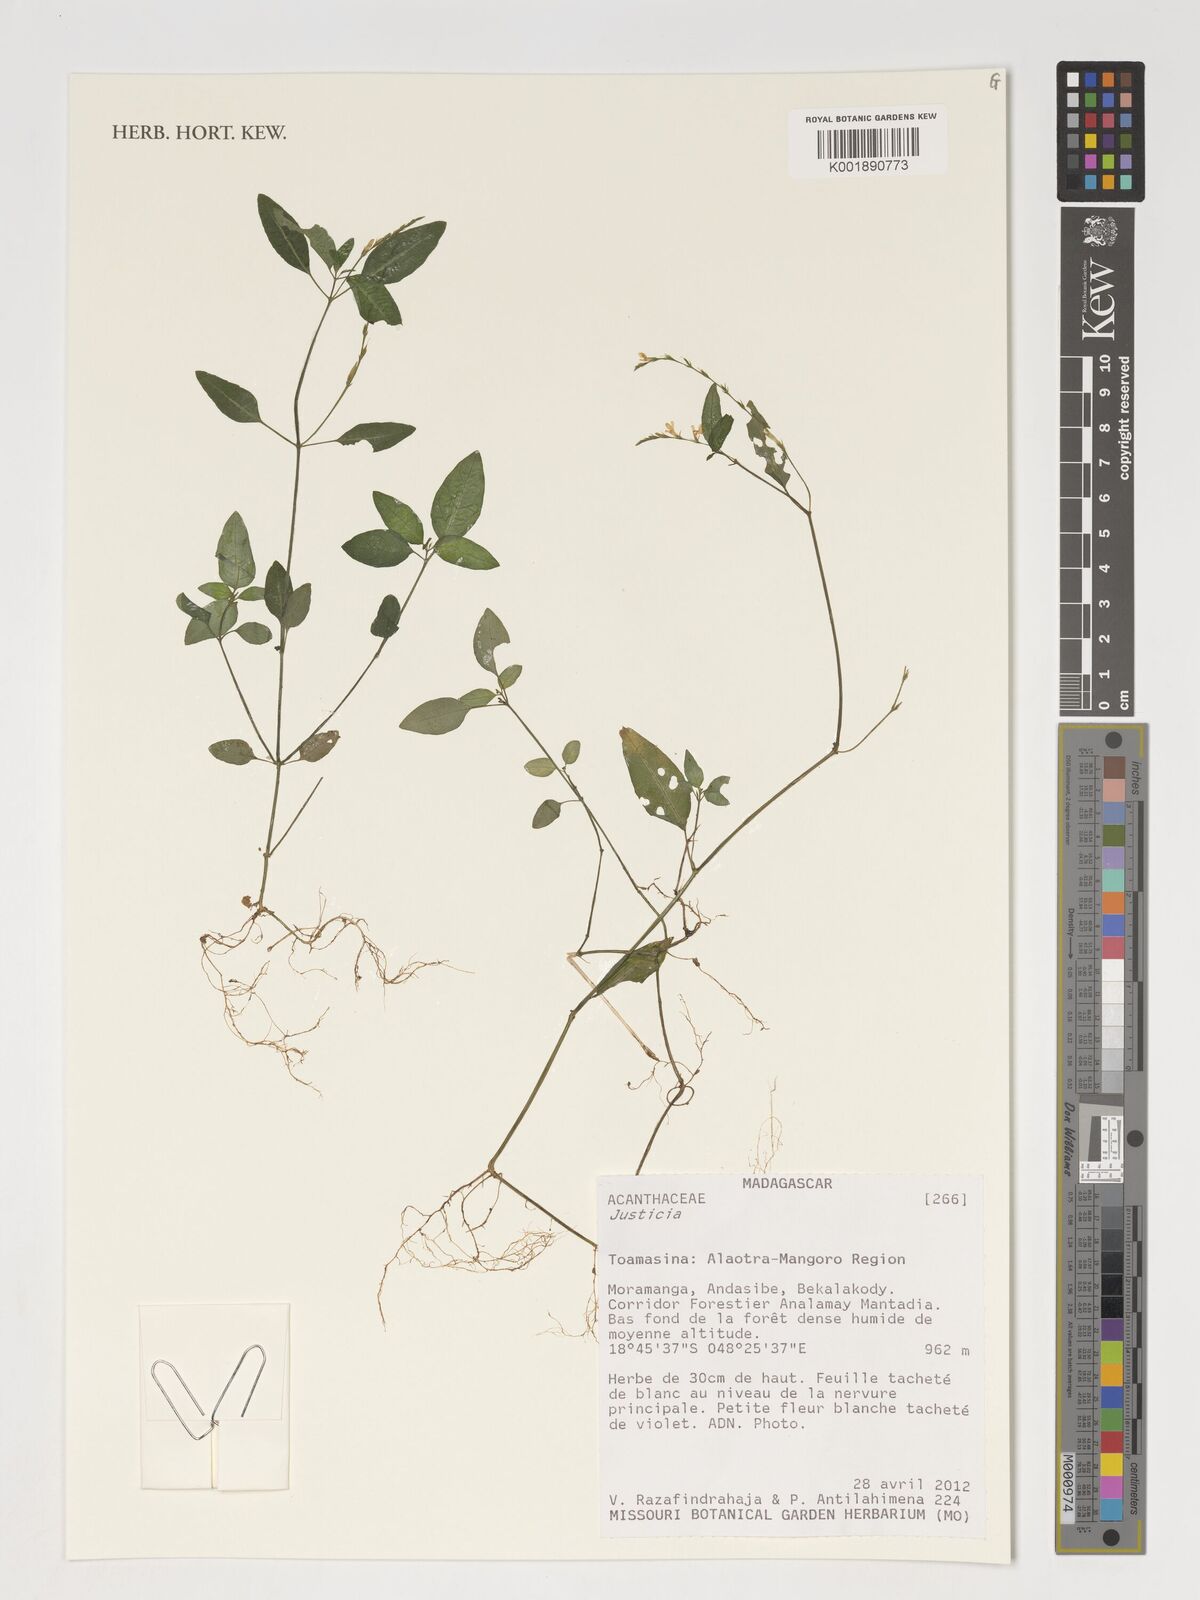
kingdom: Plantae
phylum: Tracheophyta
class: Magnoliopsida
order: Lamiales
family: Acanthaceae
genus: Justicia
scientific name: Justicia
